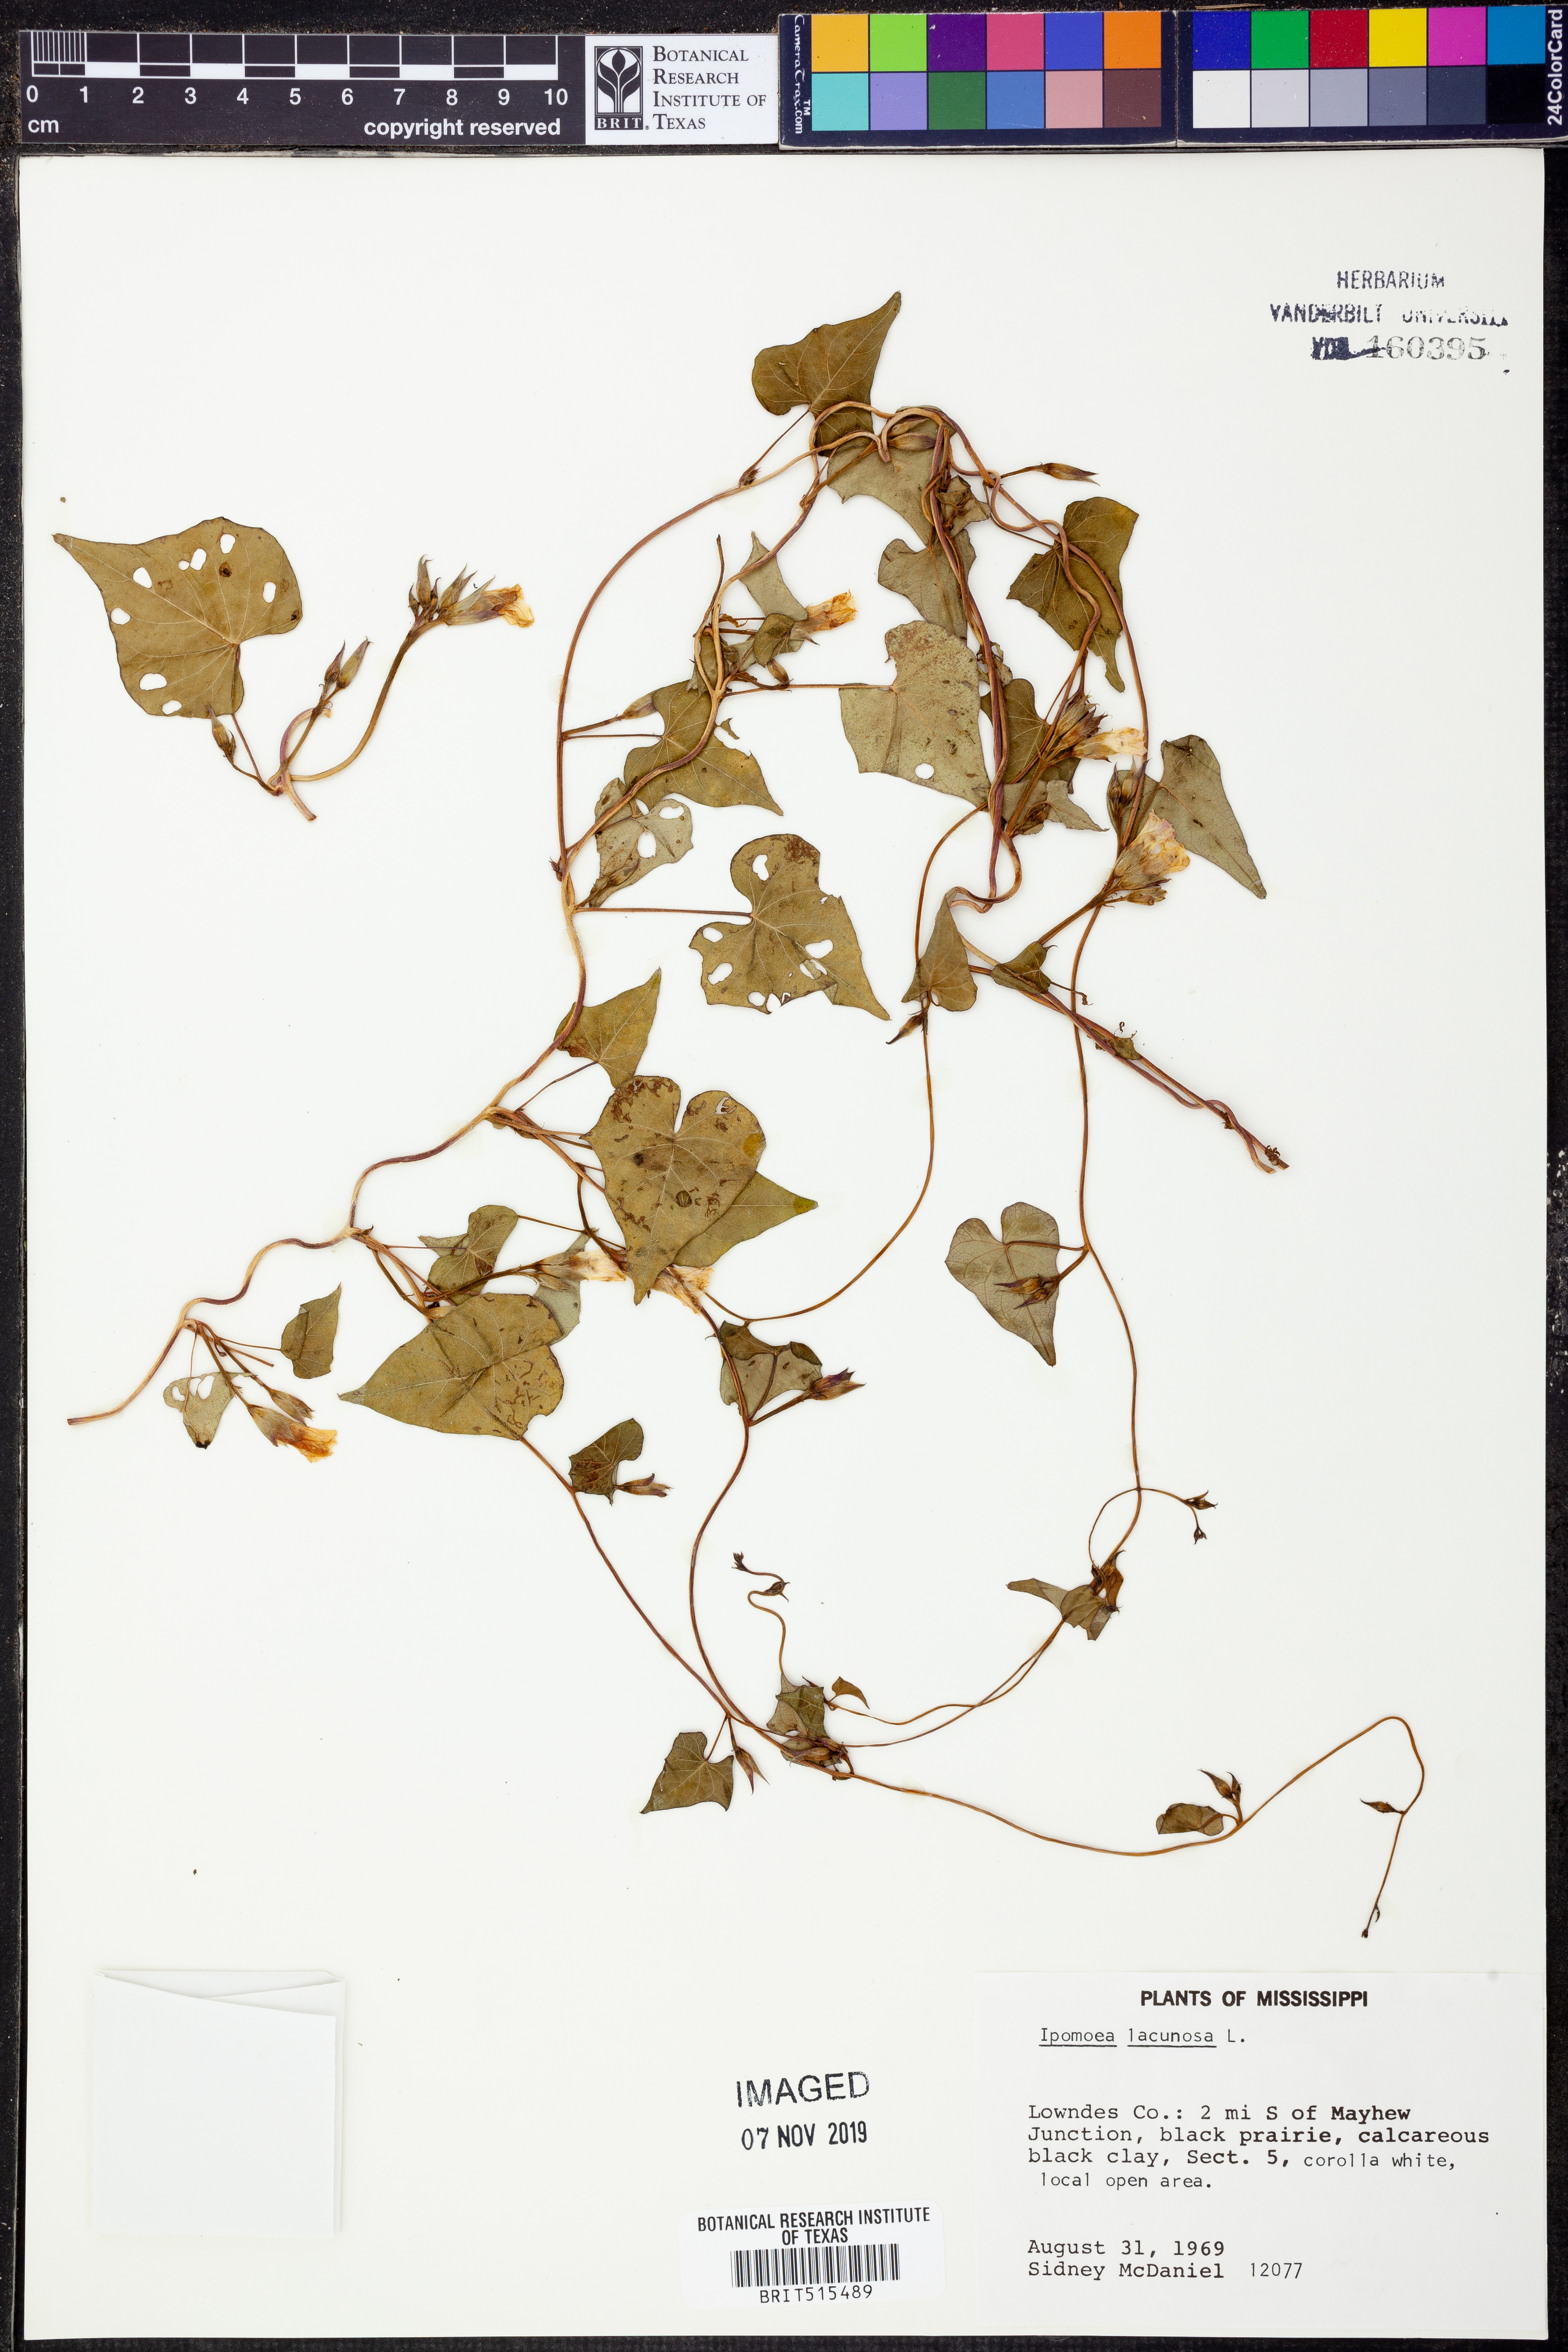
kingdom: Plantae
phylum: Tracheophyta
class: Magnoliopsida
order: Solanales
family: Convolvulaceae
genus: Ipomoea
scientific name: Ipomoea lacunosa
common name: White morning-glory
